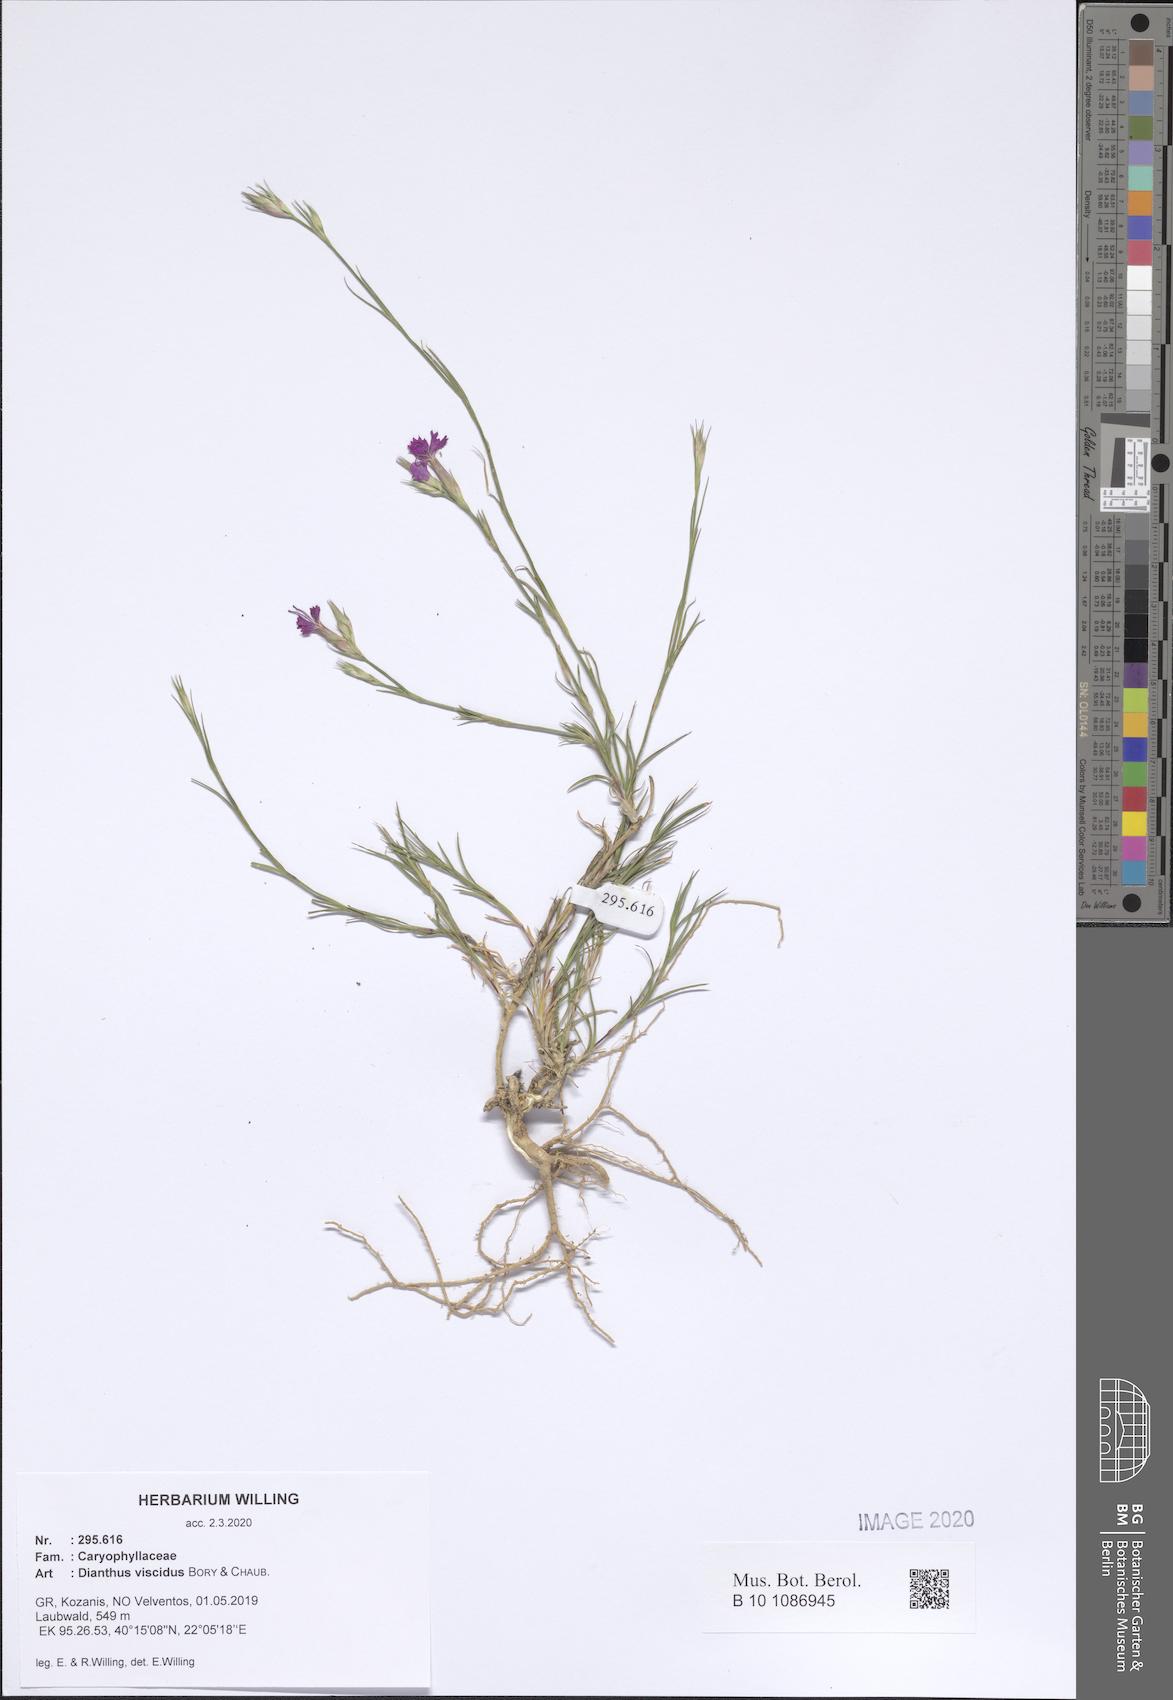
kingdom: Plantae
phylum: Tracheophyta
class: Magnoliopsida
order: Caryophyllales
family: Caryophyllaceae
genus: Dianthus
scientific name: Dianthus viscidus
